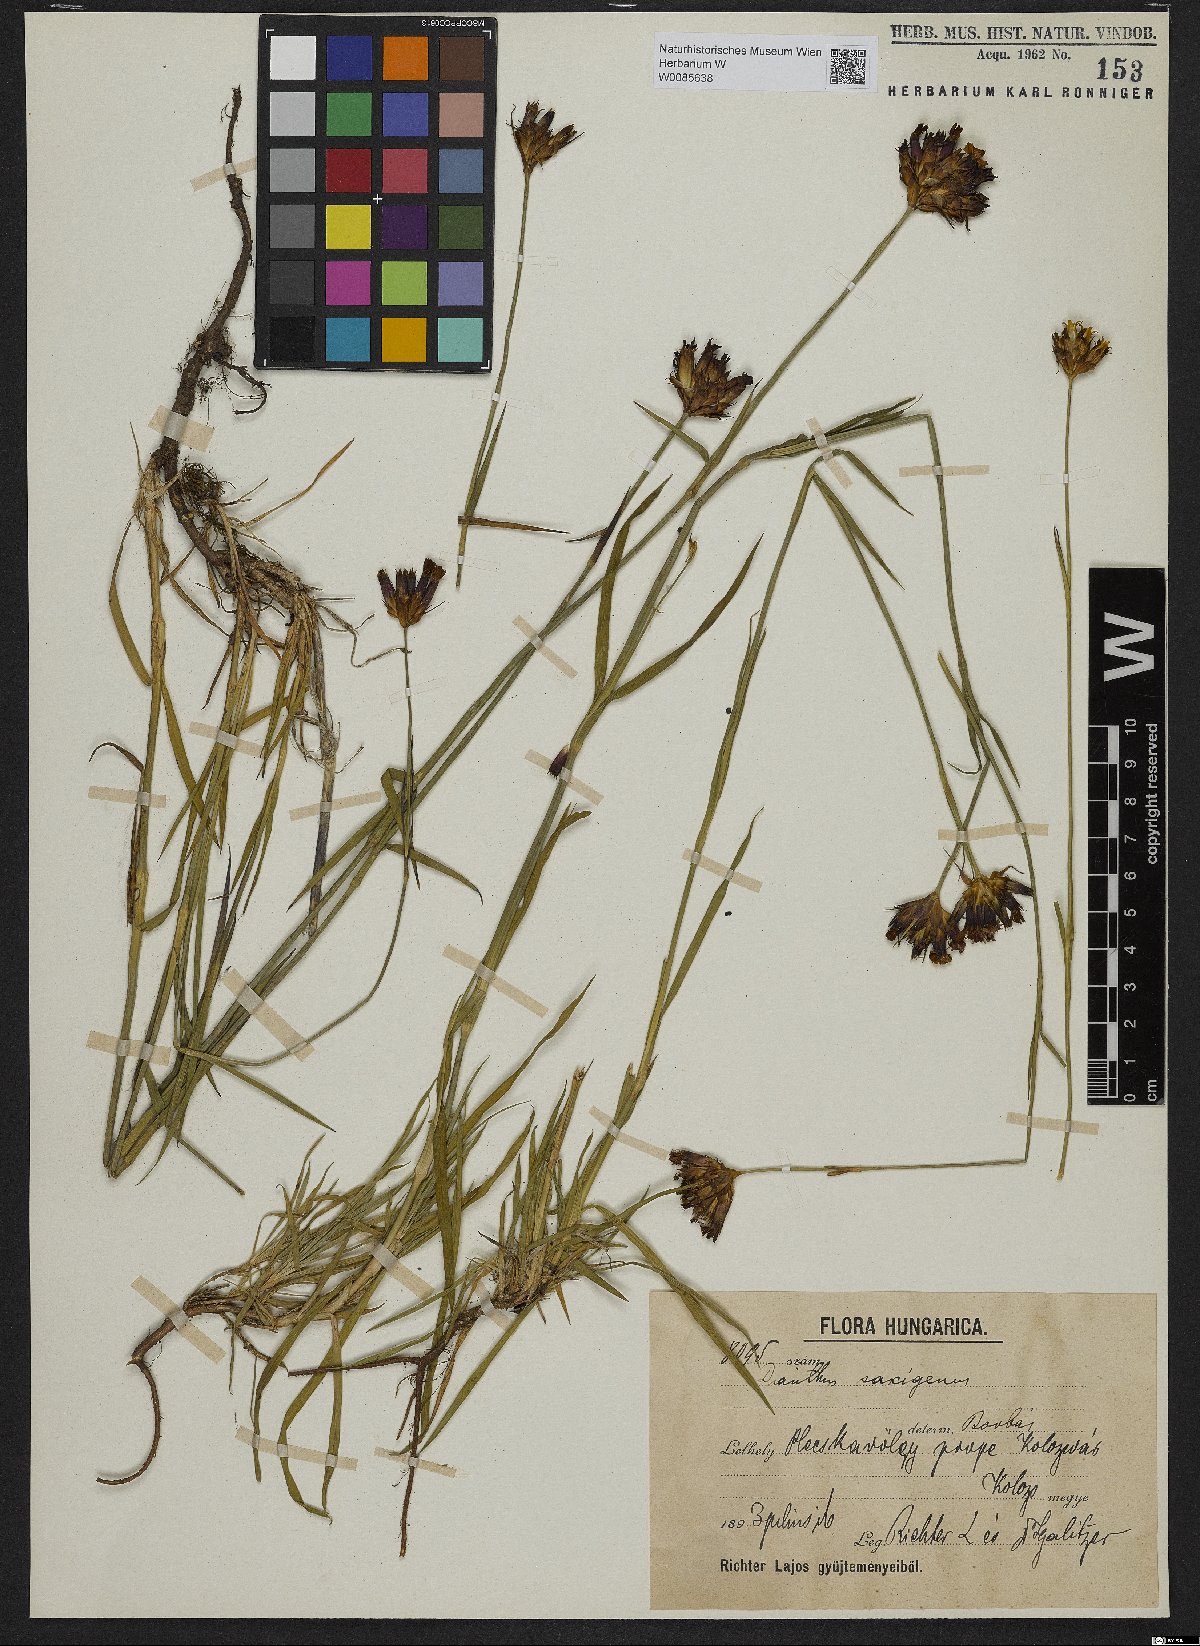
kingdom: Plantae
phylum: Tracheophyta
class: Magnoliopsida
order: Caryophyllales
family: Caryophyllaceae
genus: Dianthus
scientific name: Dianthus
